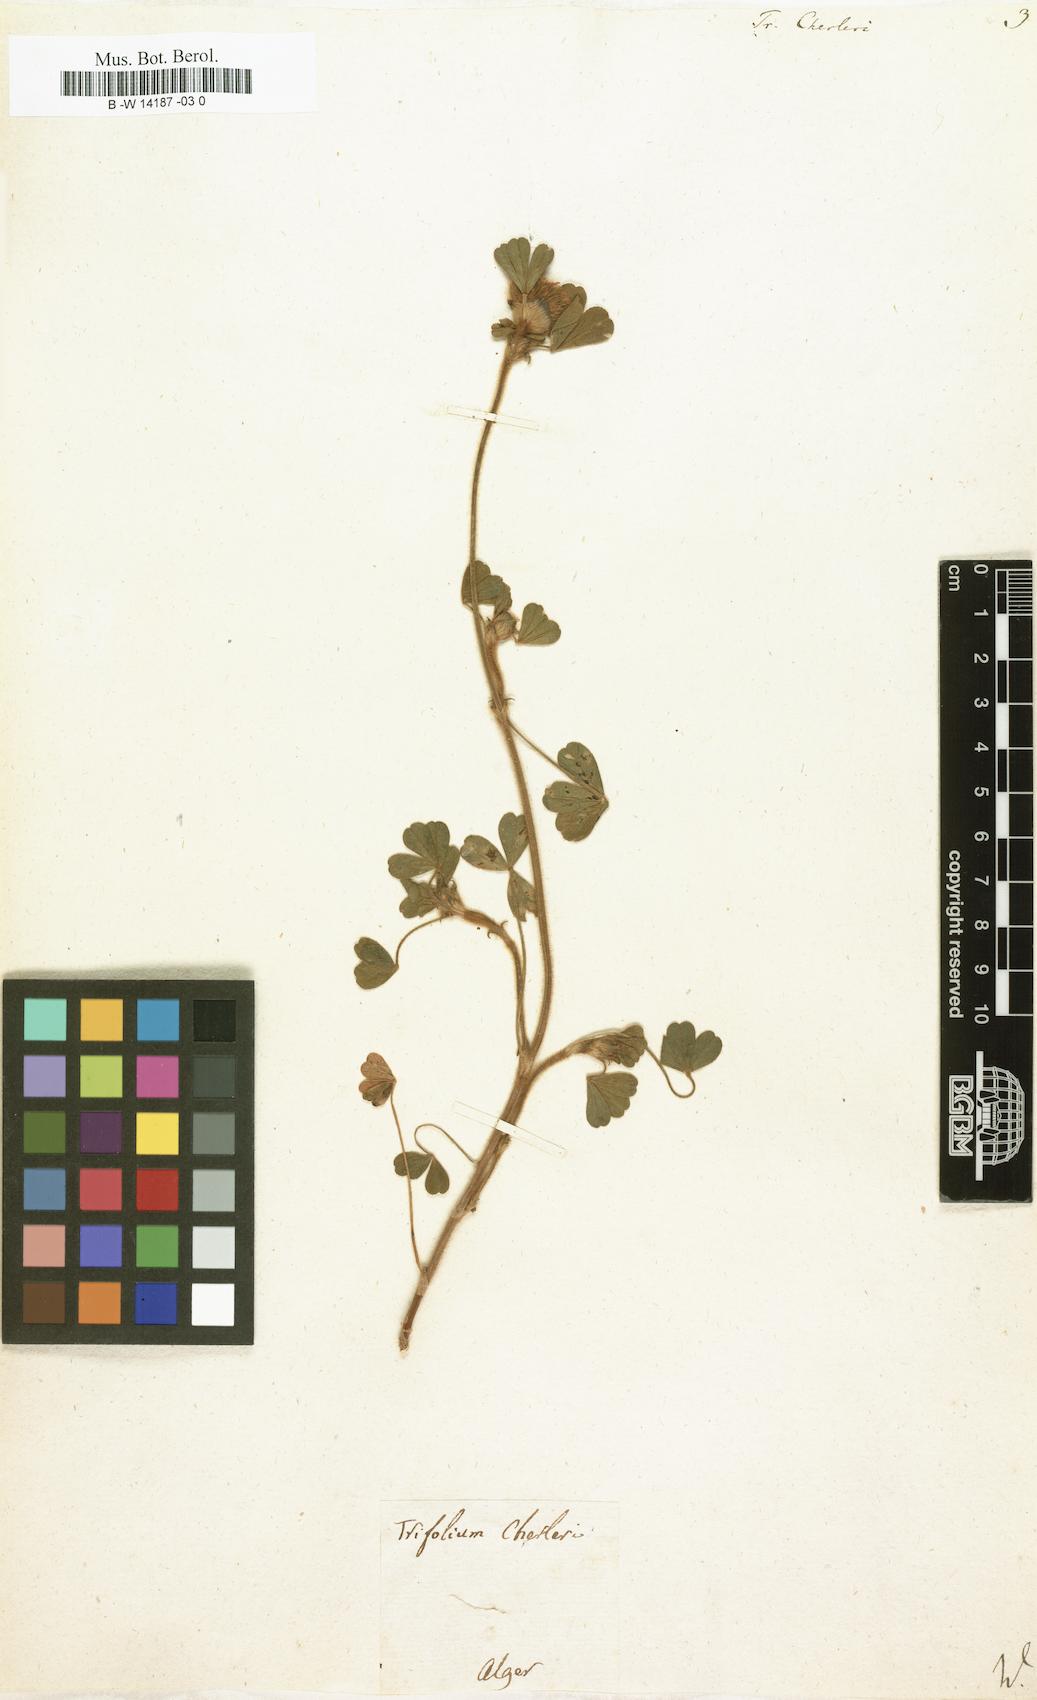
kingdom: Plantae
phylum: Tracheophyta
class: Magnoliopsida
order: Fabales
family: Fabaceae
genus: Trifolium
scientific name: Trifolium cherleri
